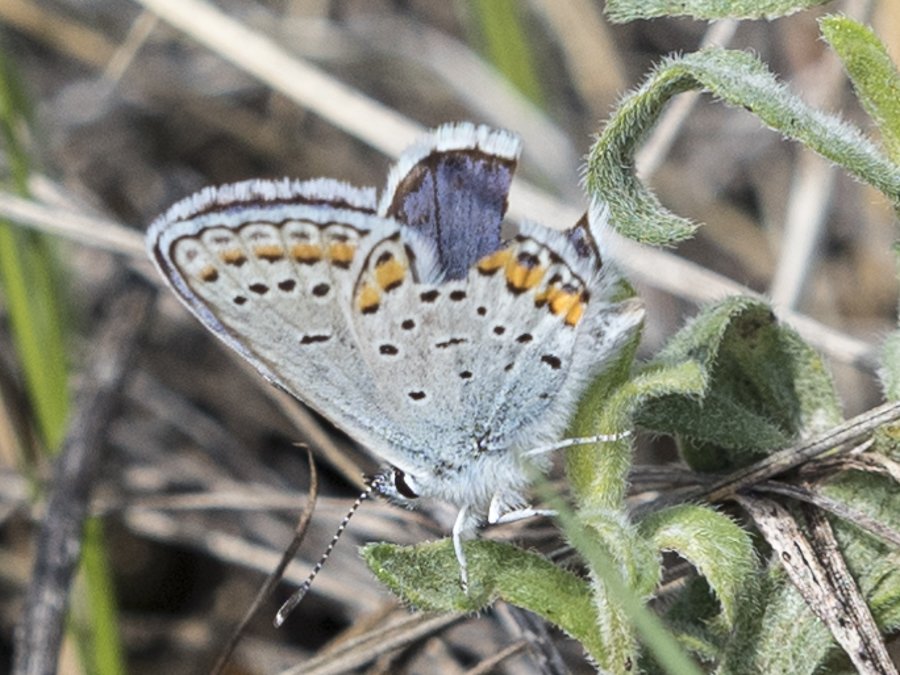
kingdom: Animalia
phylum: Arthropoda
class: Insecta
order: Lepidoptera
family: Lycaenidae
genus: Lycaeides
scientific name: Lycaeides melissa
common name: Melissa Blue
